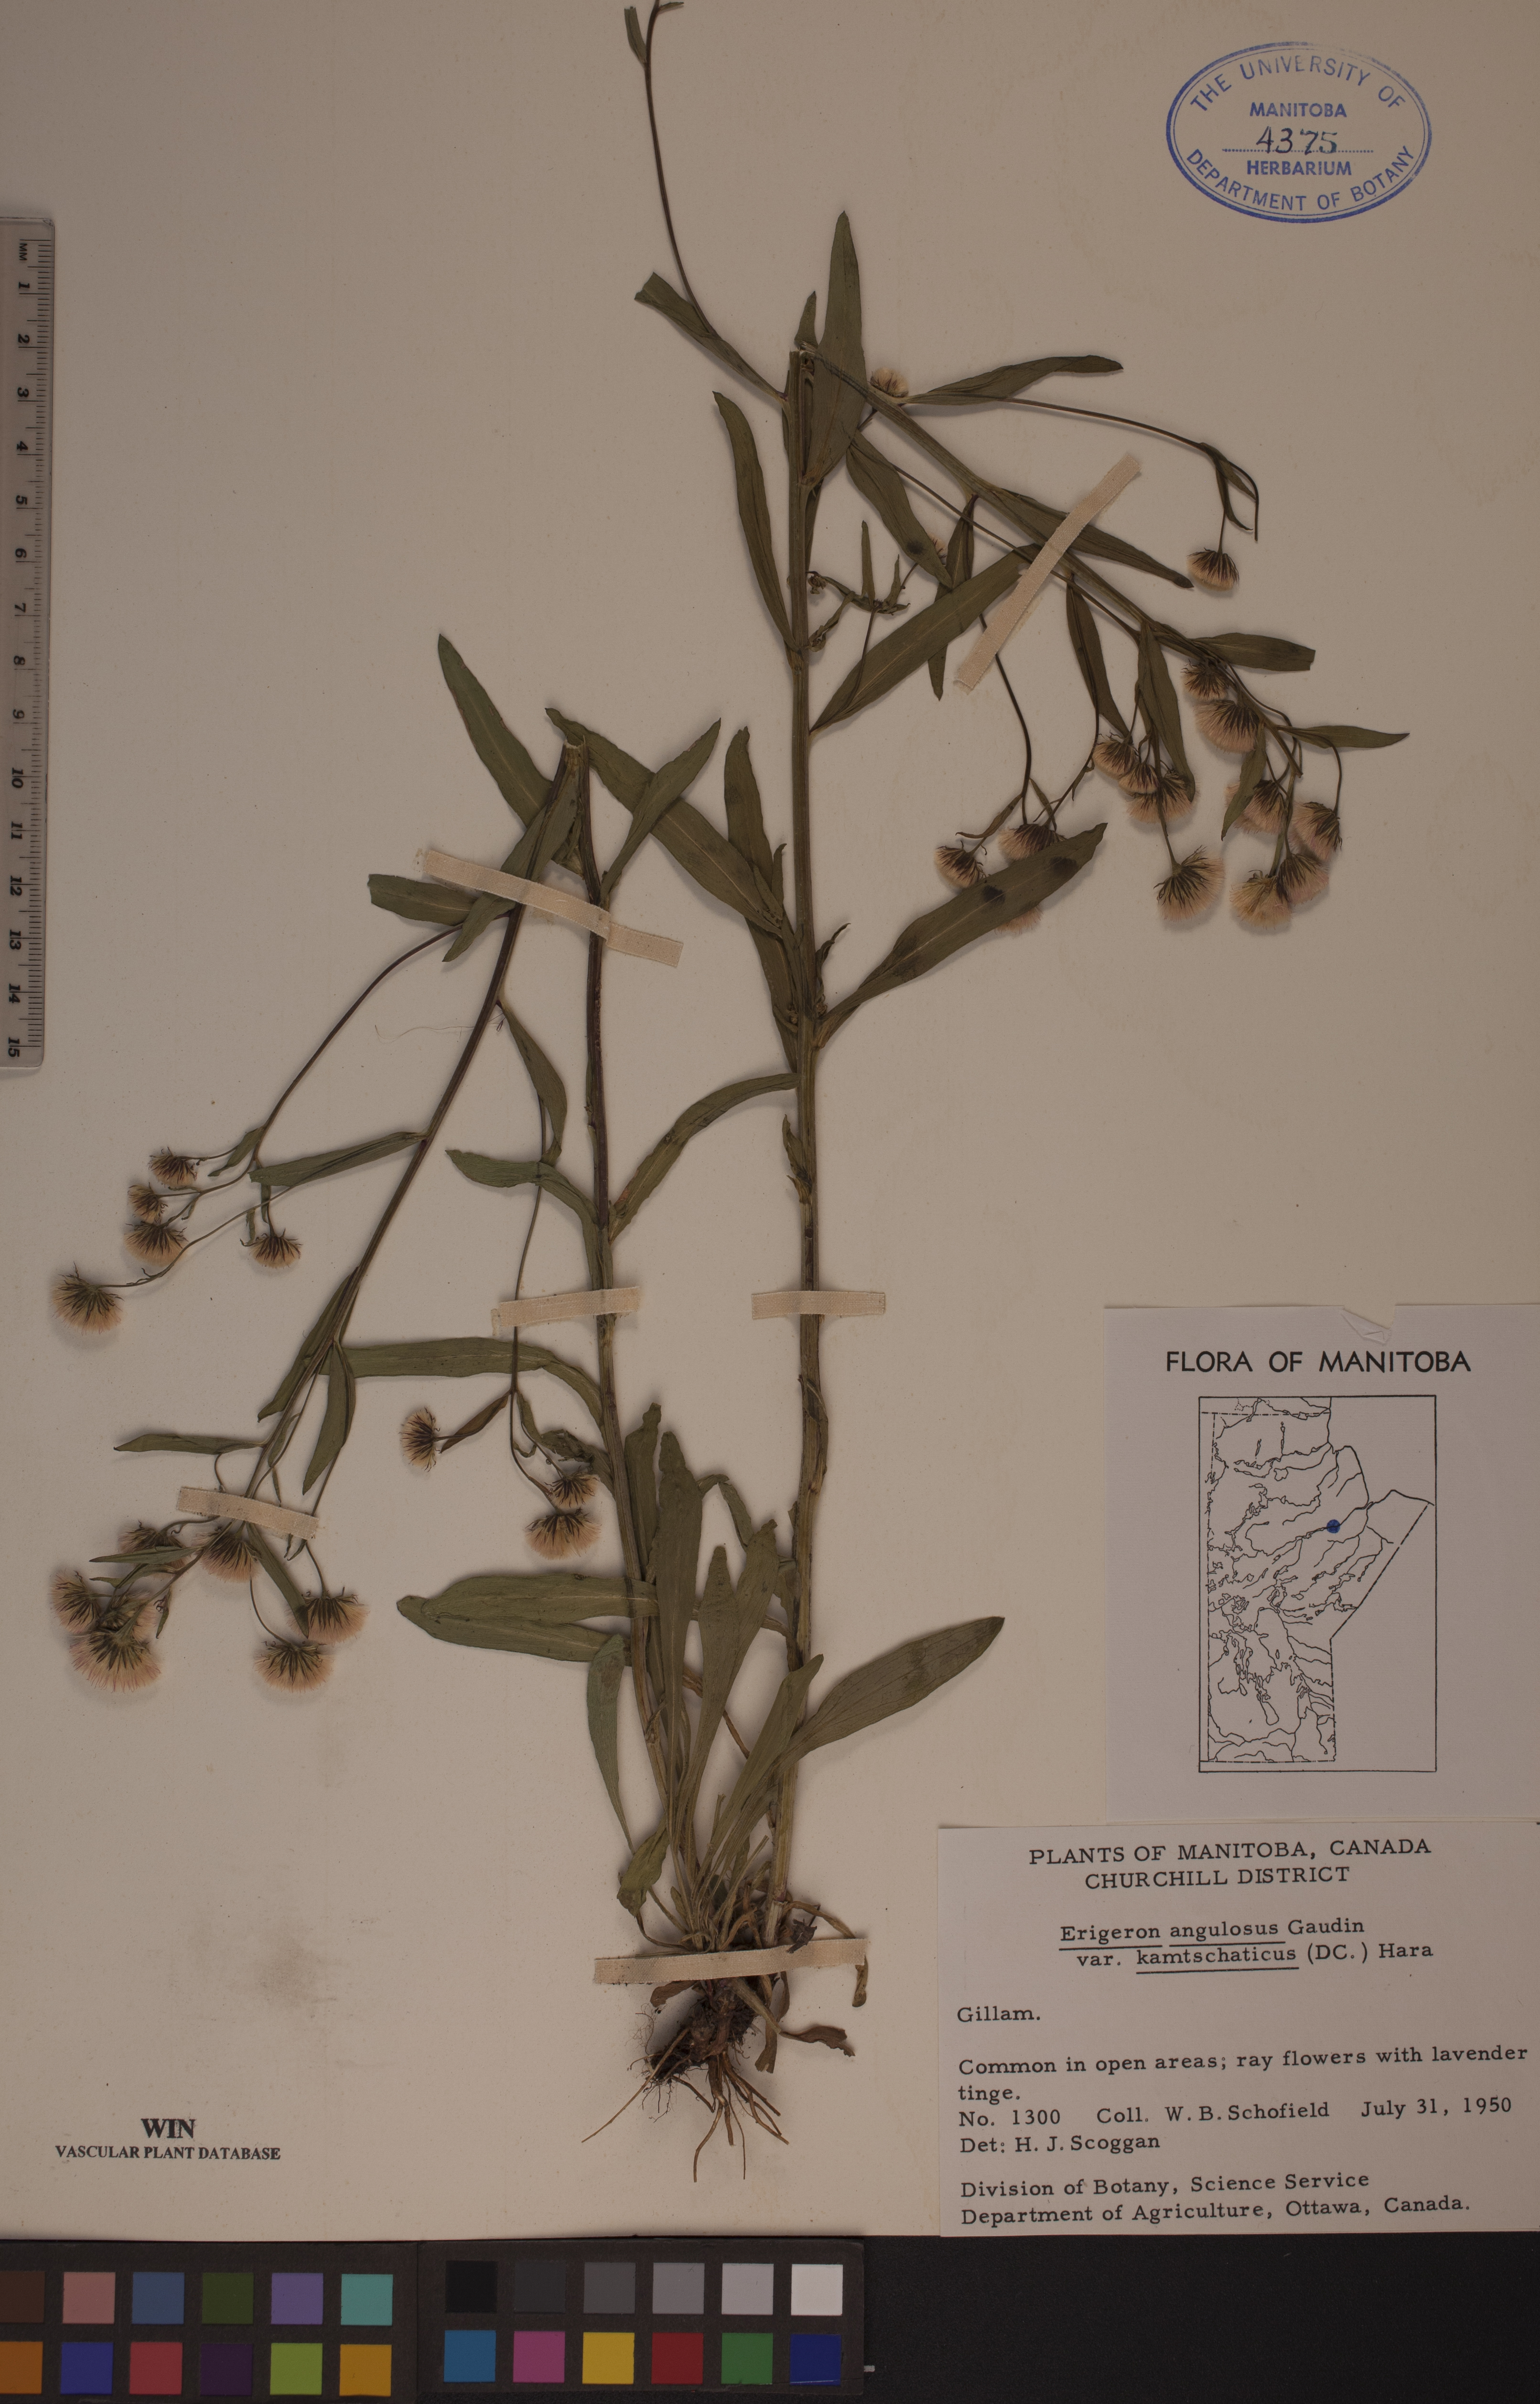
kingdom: Plantae
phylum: Tracheophyta
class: Magnoliopsida
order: Asterales
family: Asteraceae
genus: Erigeron
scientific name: Erigeron kamtschaticus
